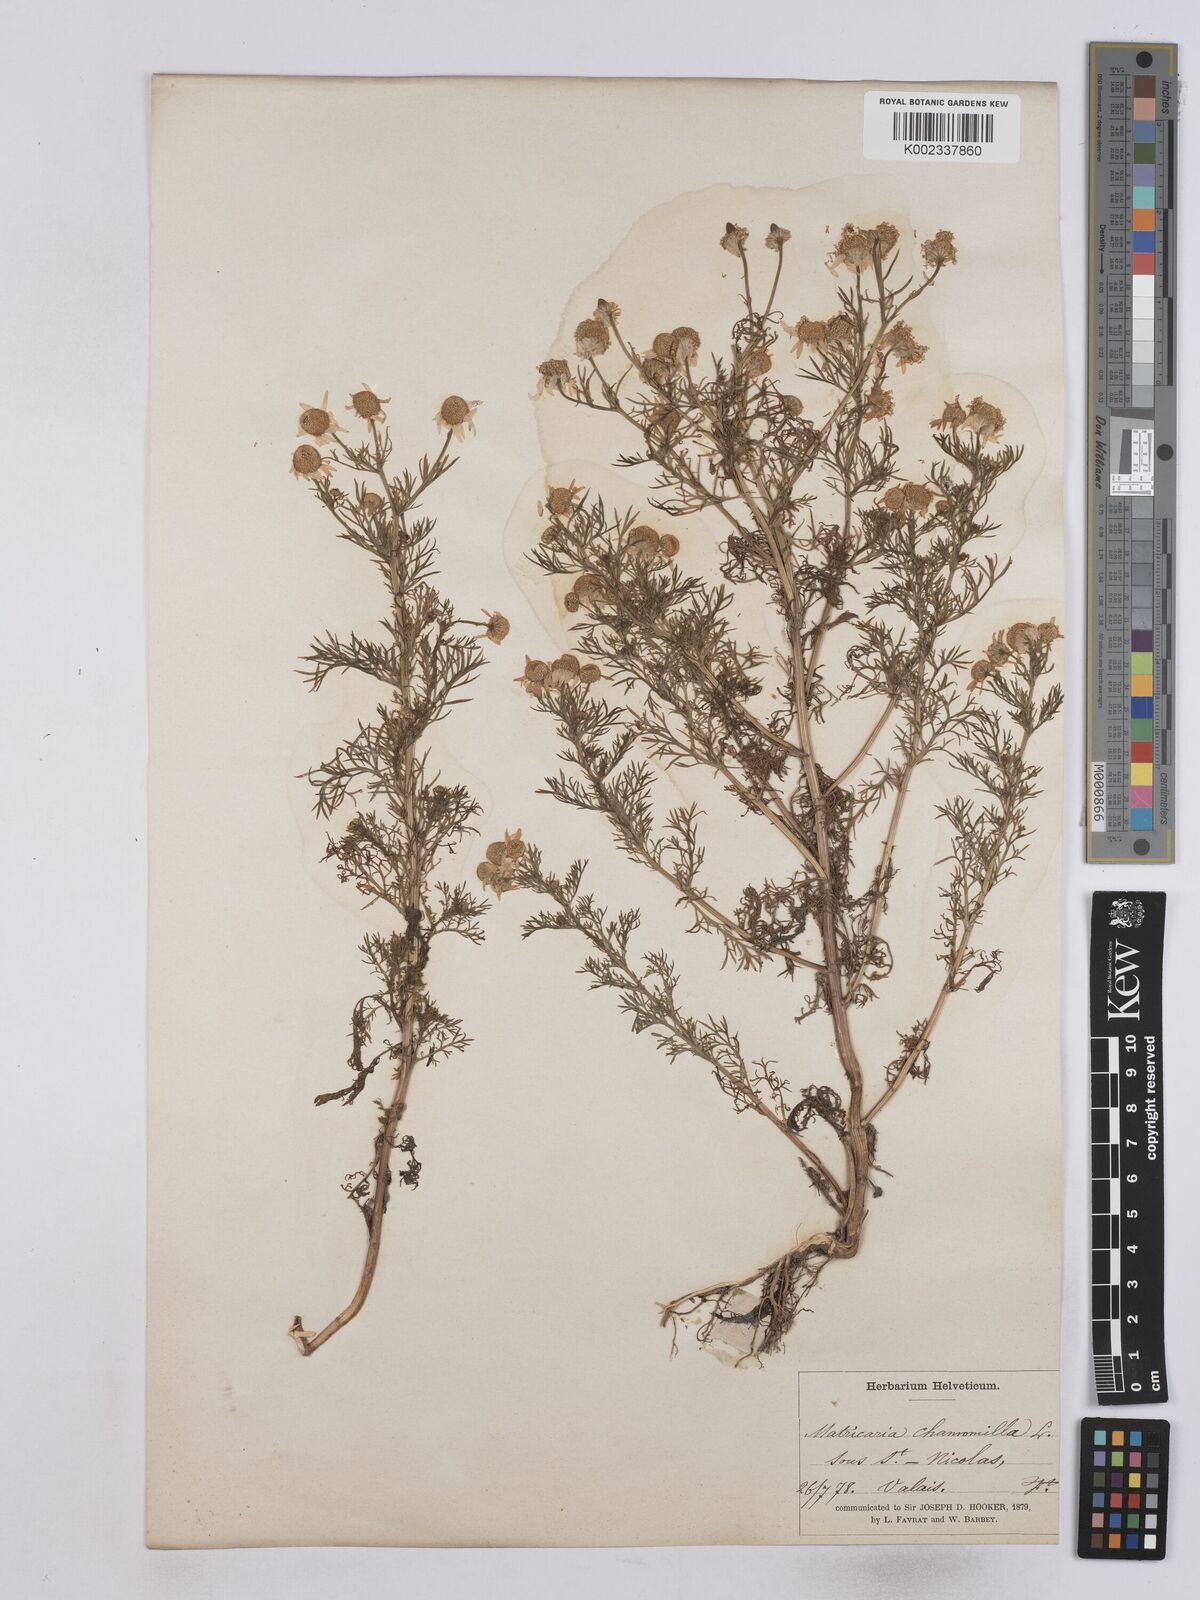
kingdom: Plantae
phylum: Tracheophyta
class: Magnoliopsida
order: Asterales
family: Asteraceae
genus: Matricaria
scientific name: Matricaria chamomilla
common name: Scented mayweed
